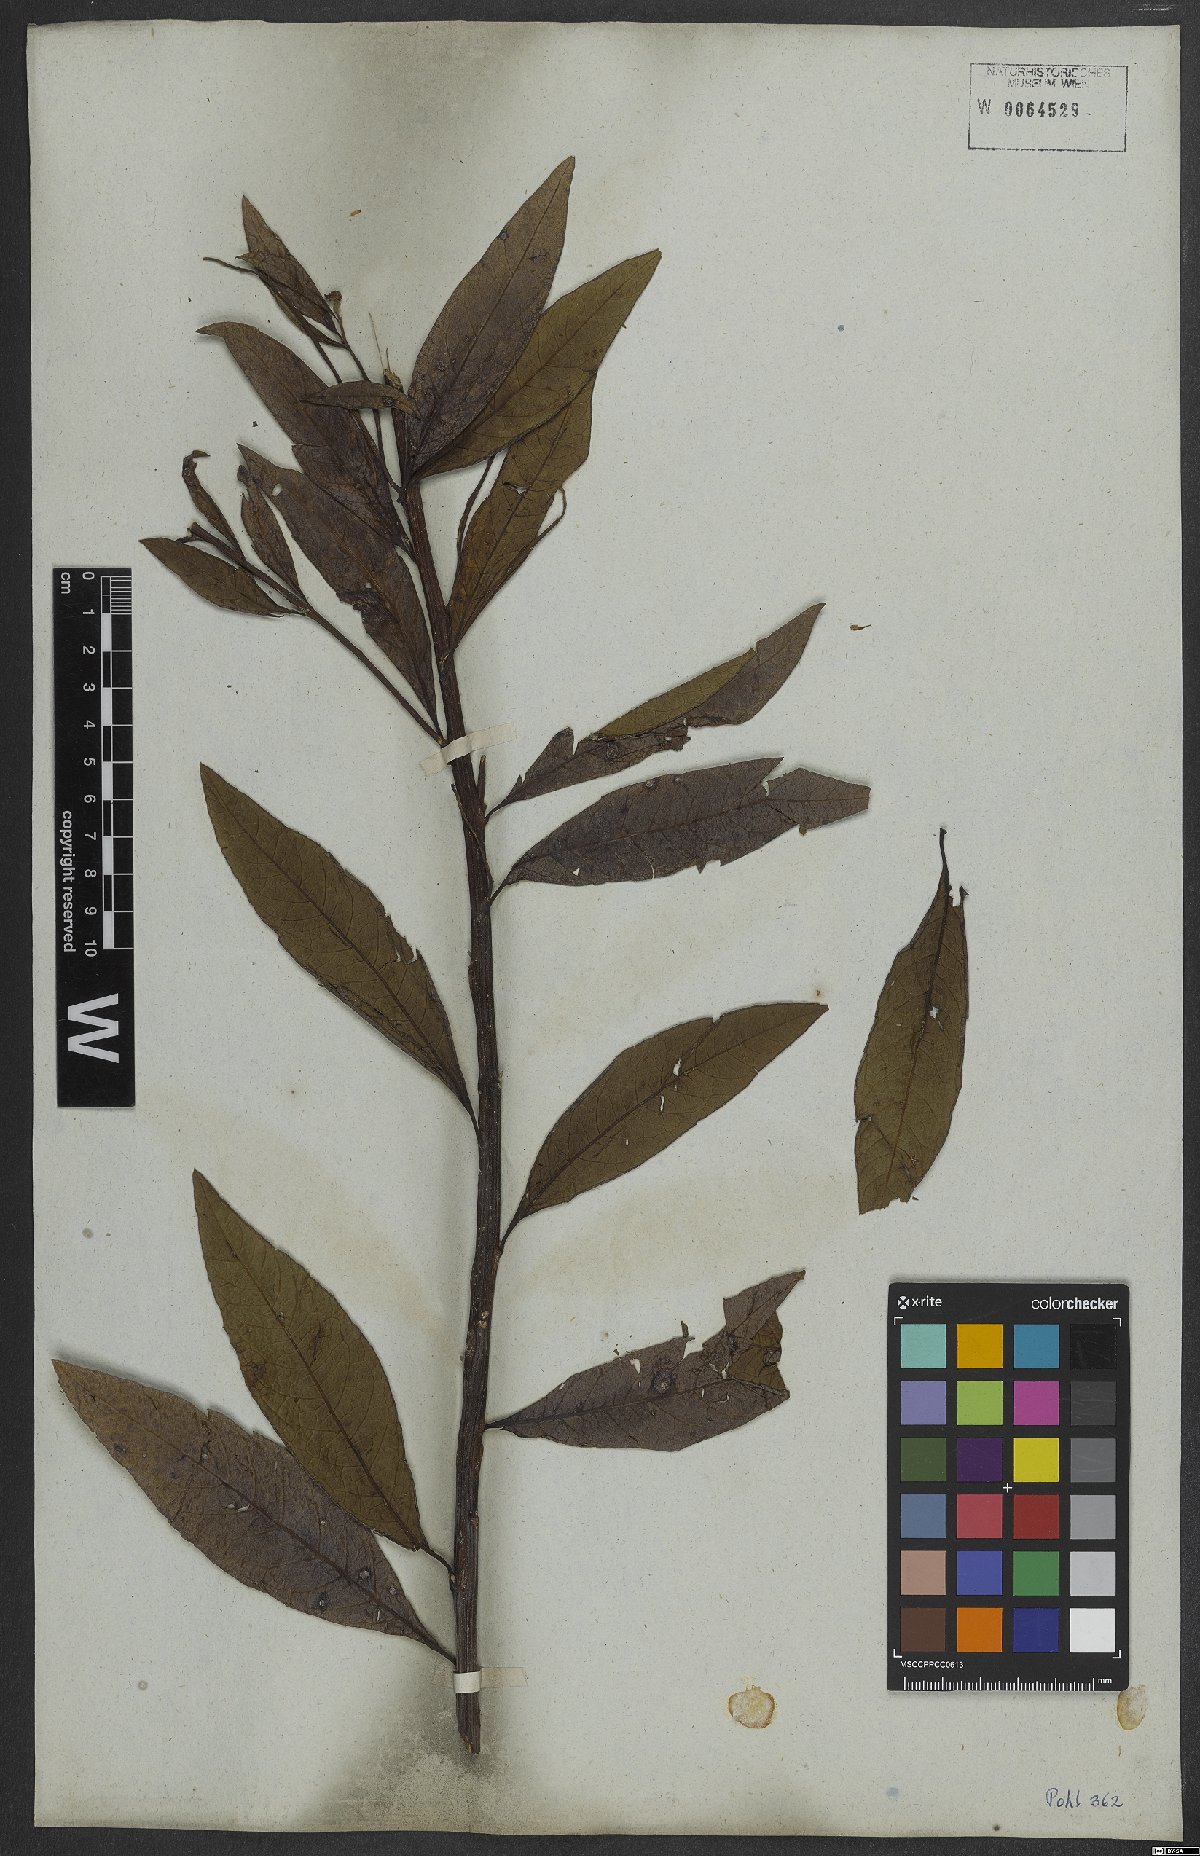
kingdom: Plantae
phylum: Tracheophyta
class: Magnoliopsida
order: Asterales
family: Asteraceae
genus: Vernonanthura
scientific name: Vernonanthura beyrichii
